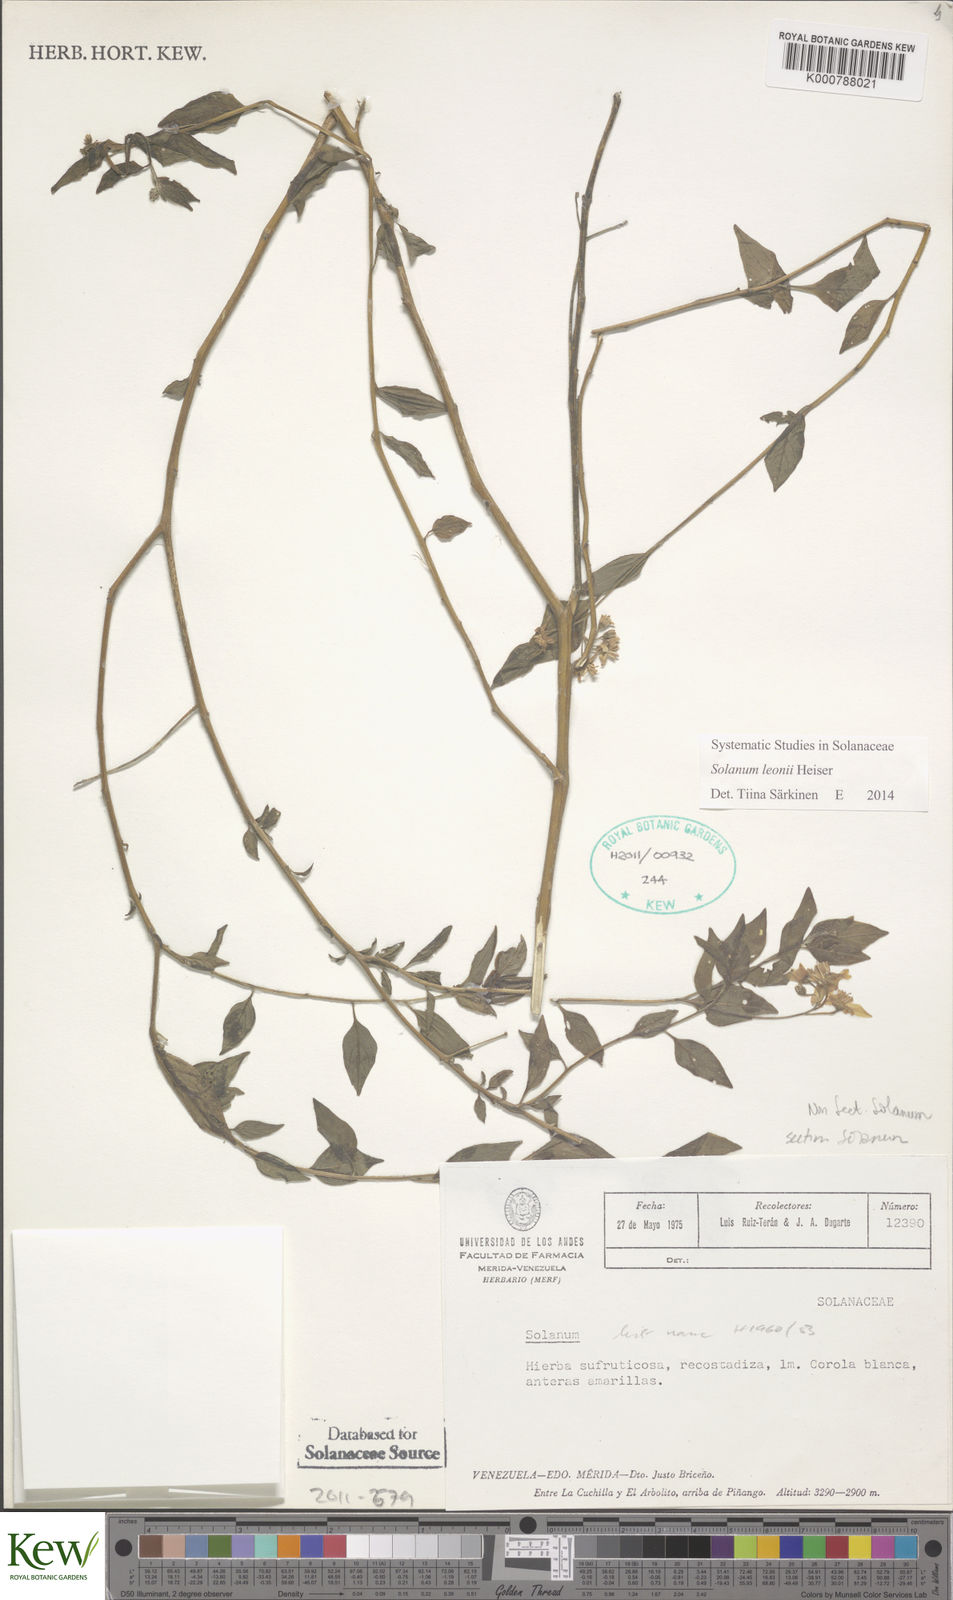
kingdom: Plantae
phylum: Tracheophyta
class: Magnoliopsida
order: Solanales
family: Solanaceae
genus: Solanum
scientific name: Solanum
